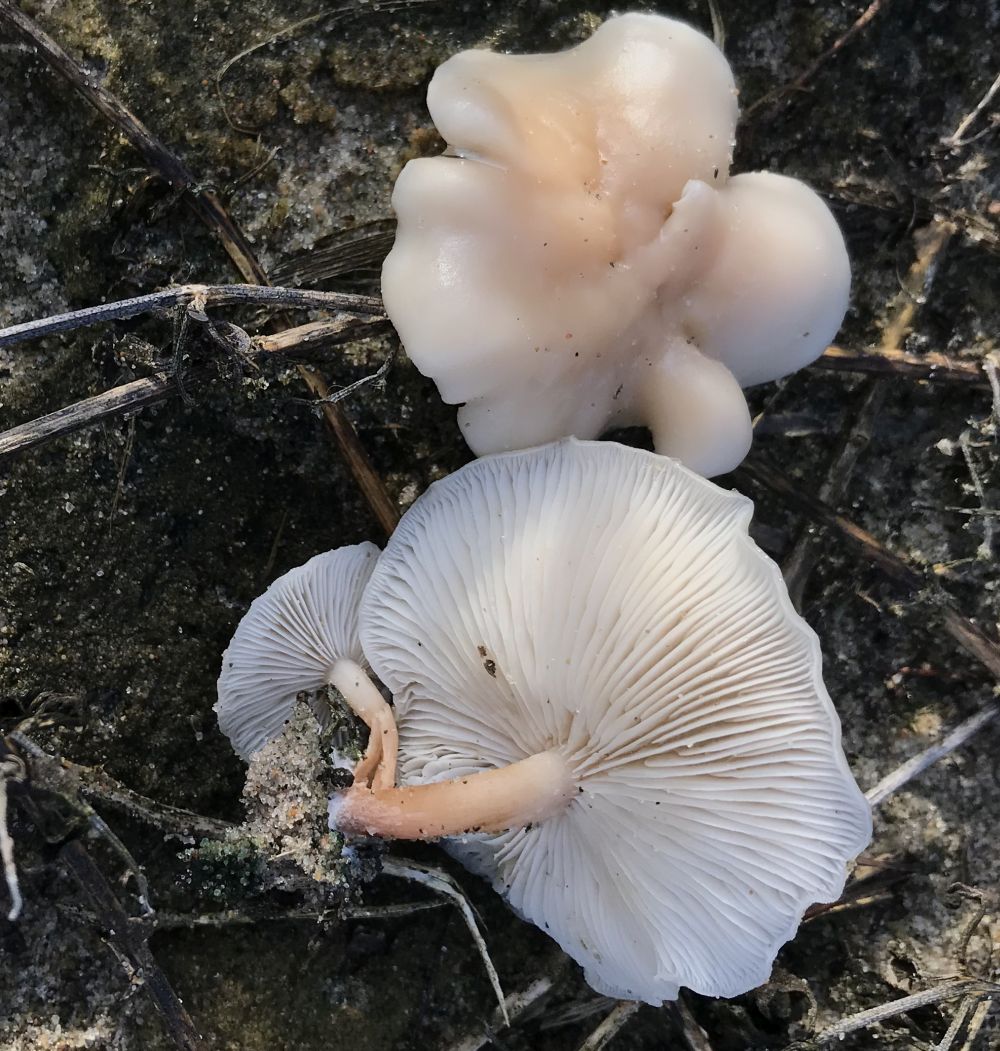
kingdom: Fungi
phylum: Basidiomycota
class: Agaricomycetes
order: Agaricales
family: Tricholomataceae
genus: Clitocybe
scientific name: Clitocybe fragrans
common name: vellugtende tragthat
